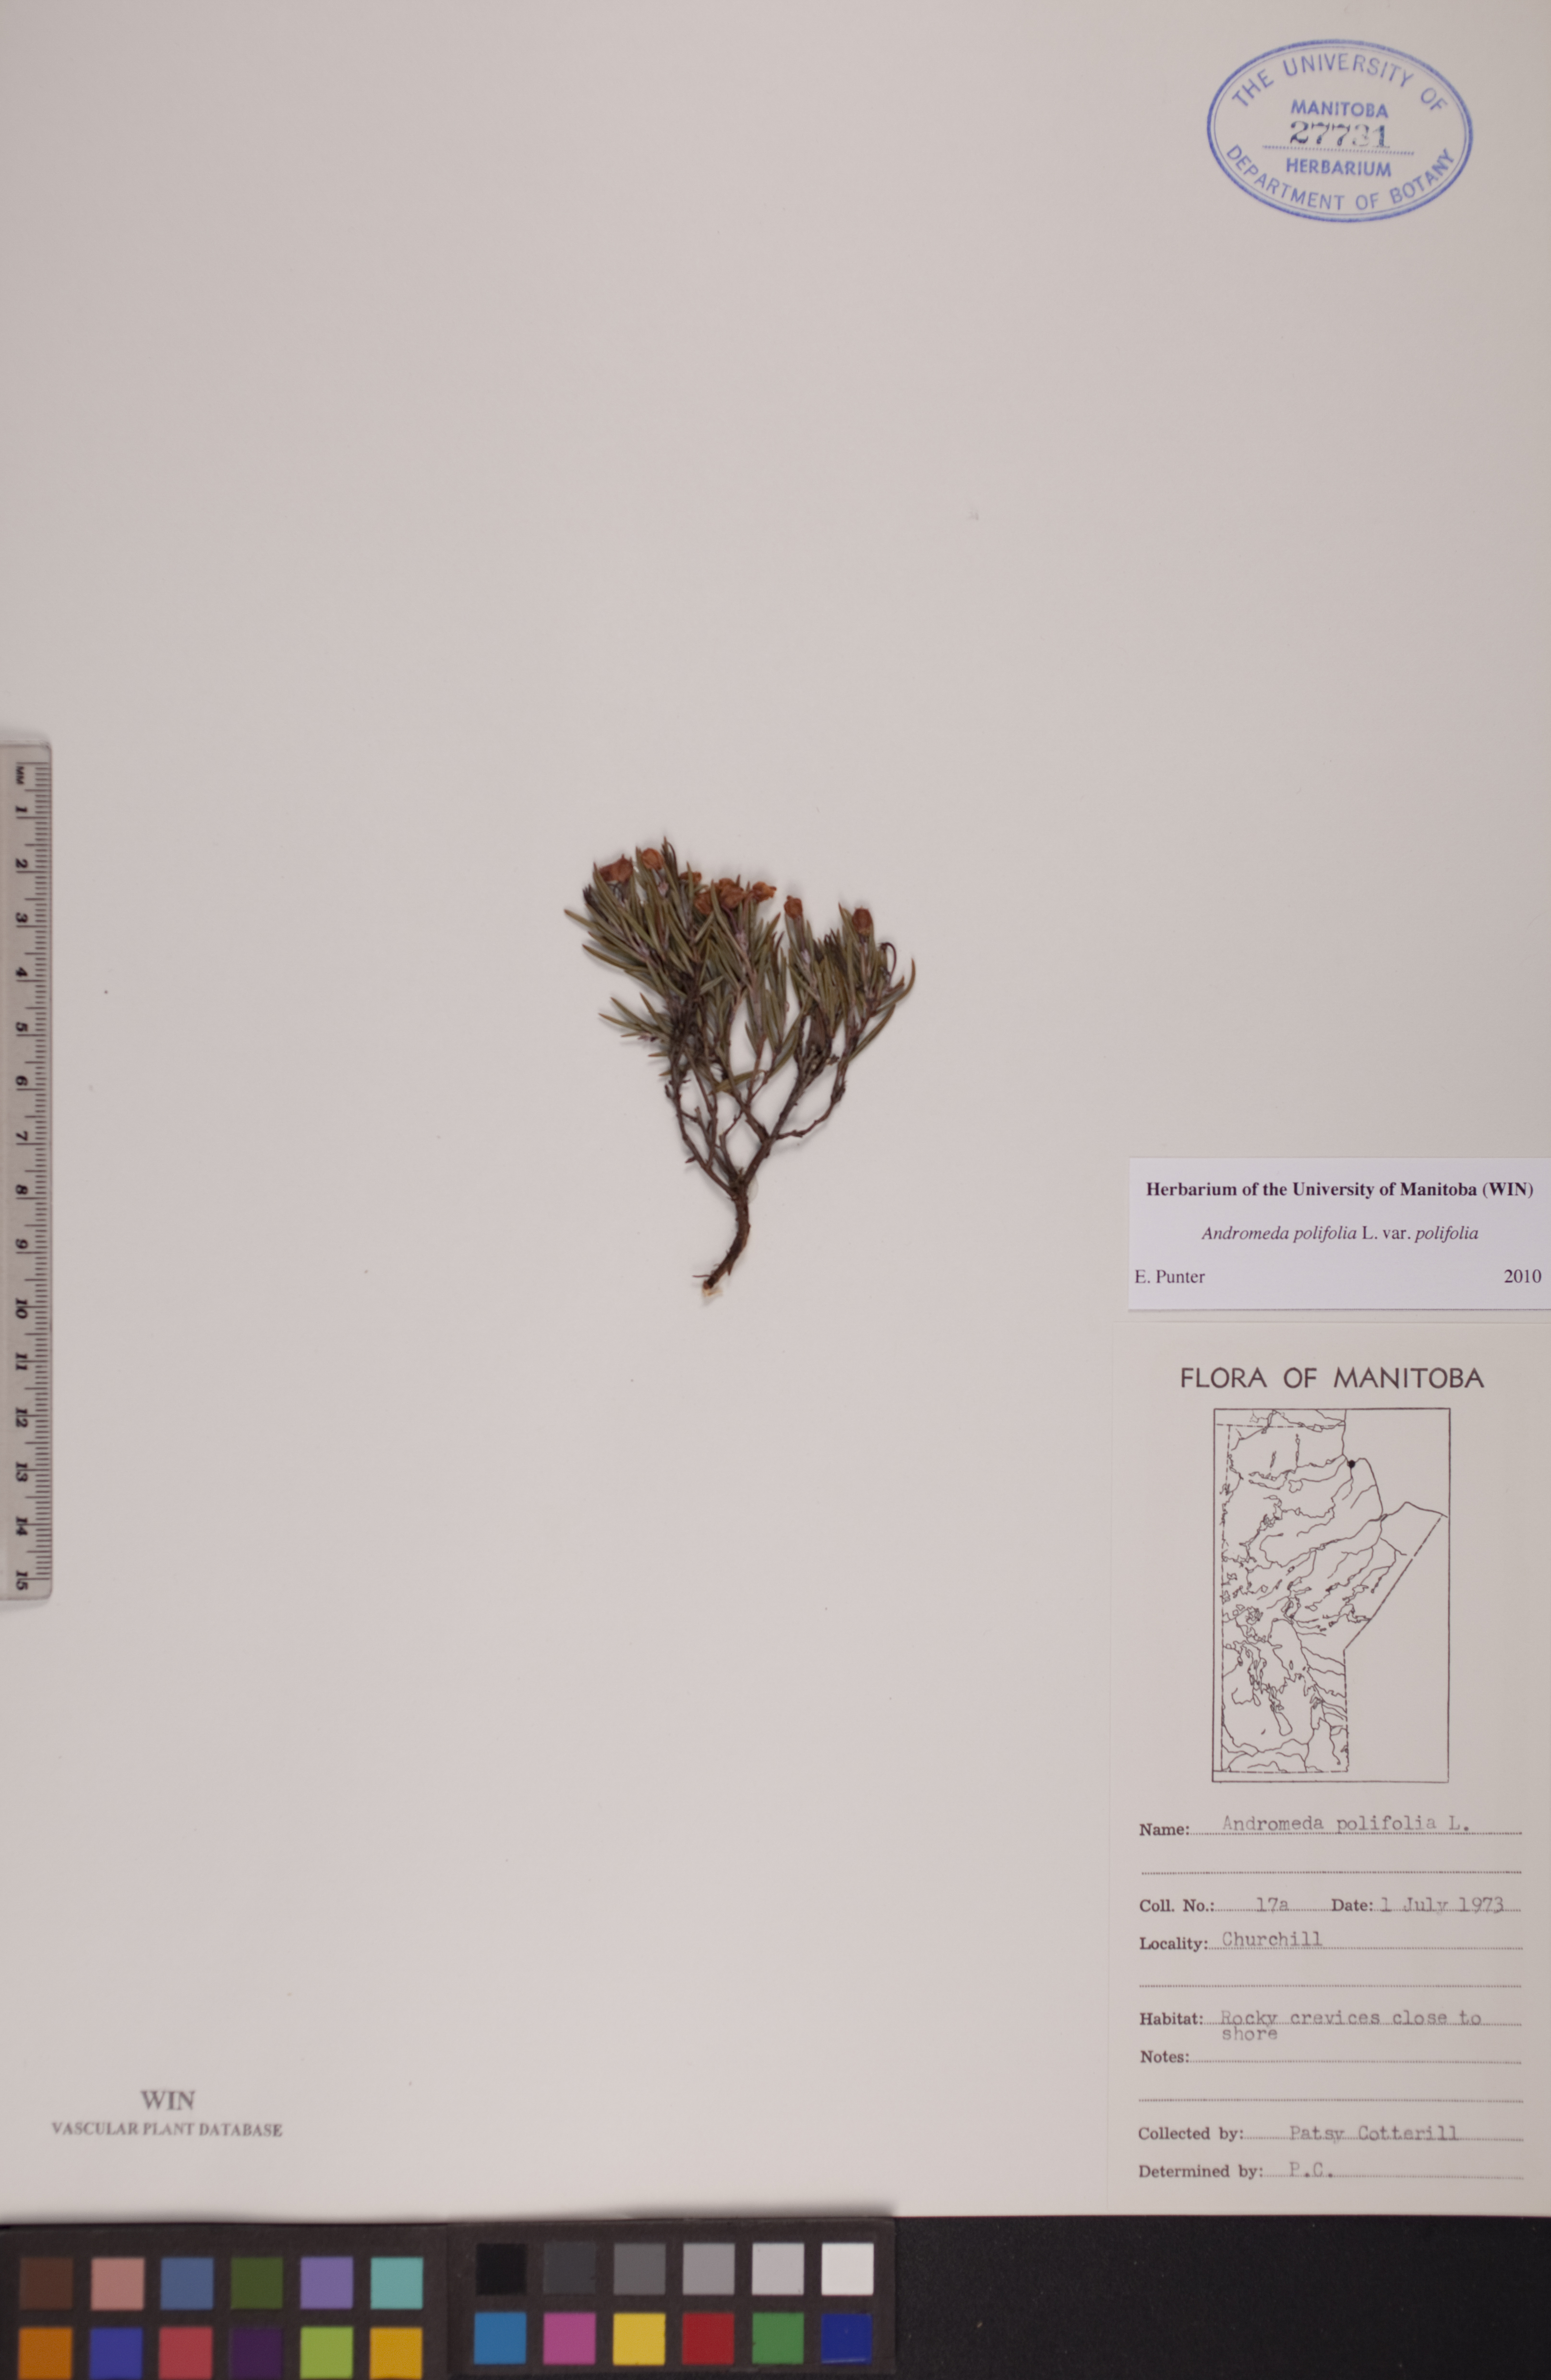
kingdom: Plantae
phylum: Tracheophyta
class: Magnoliopsida
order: Ericales
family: Ericaceae
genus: Andromeda
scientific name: Andromeda polifolia
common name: Bog-rosemary
